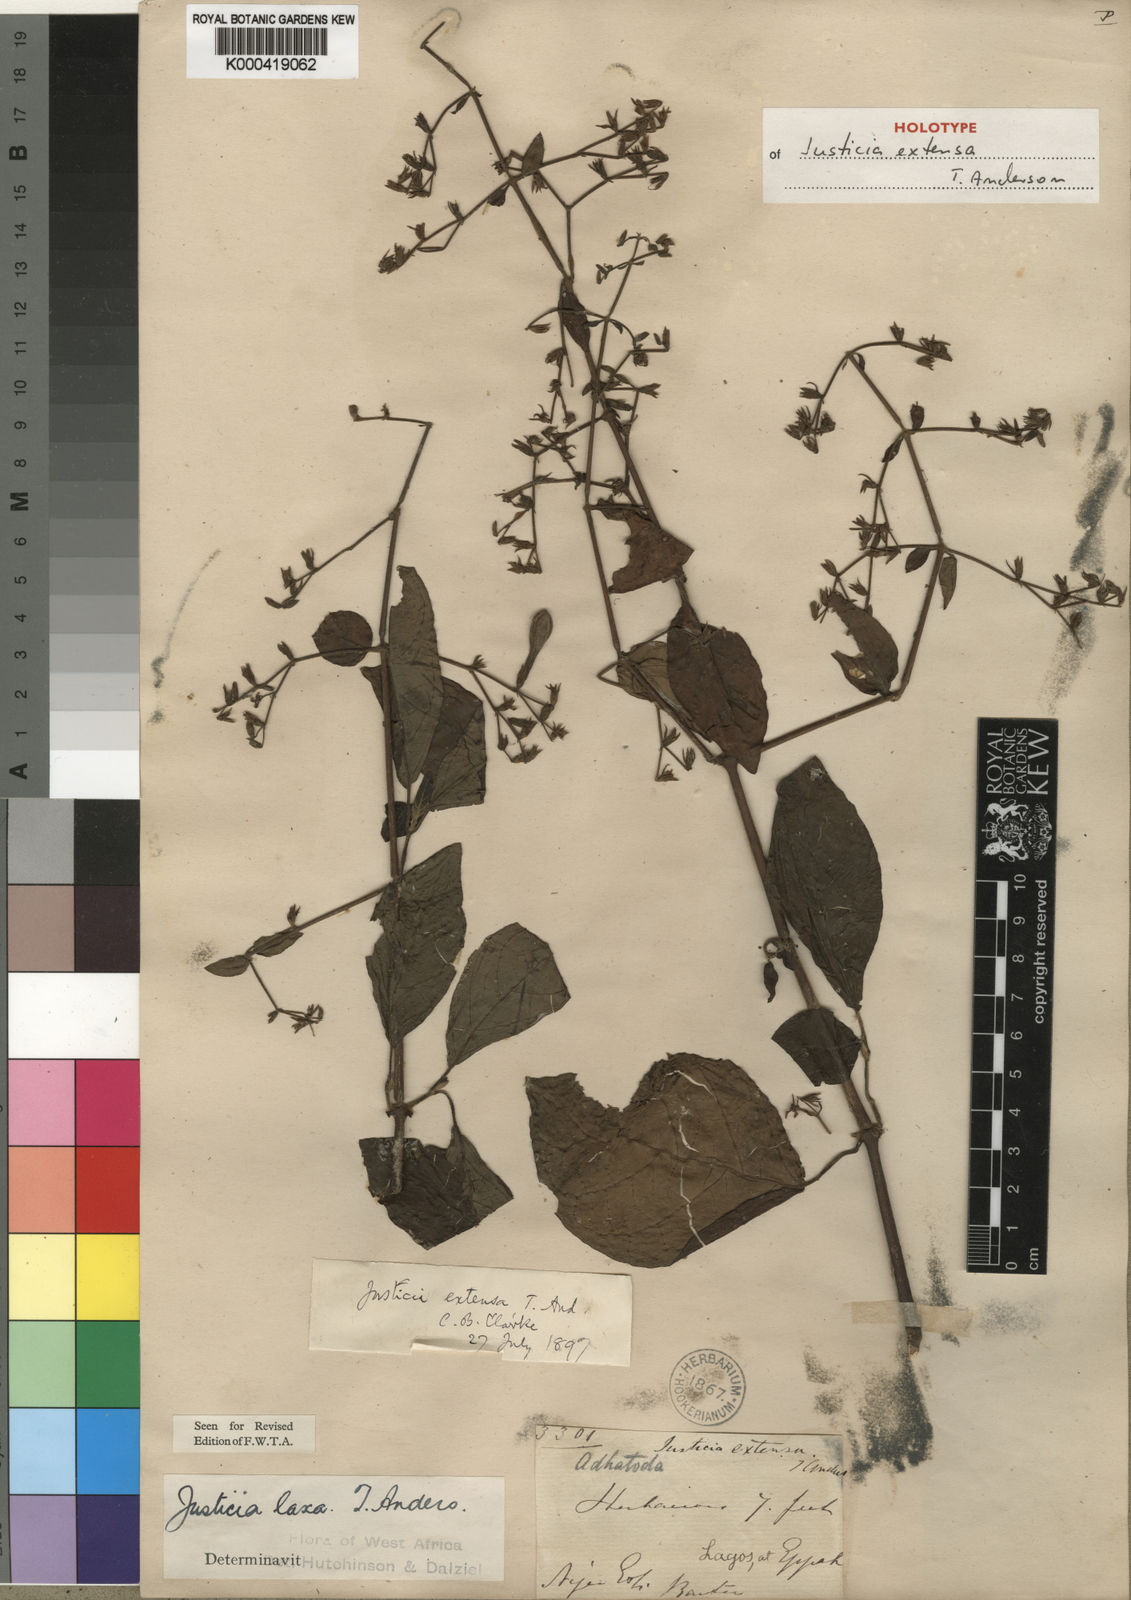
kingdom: Plantae
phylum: Tracheophyta
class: Magnoliopsida
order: Lamiales
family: Acanthaceae
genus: Justicia
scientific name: Justicia extensa
